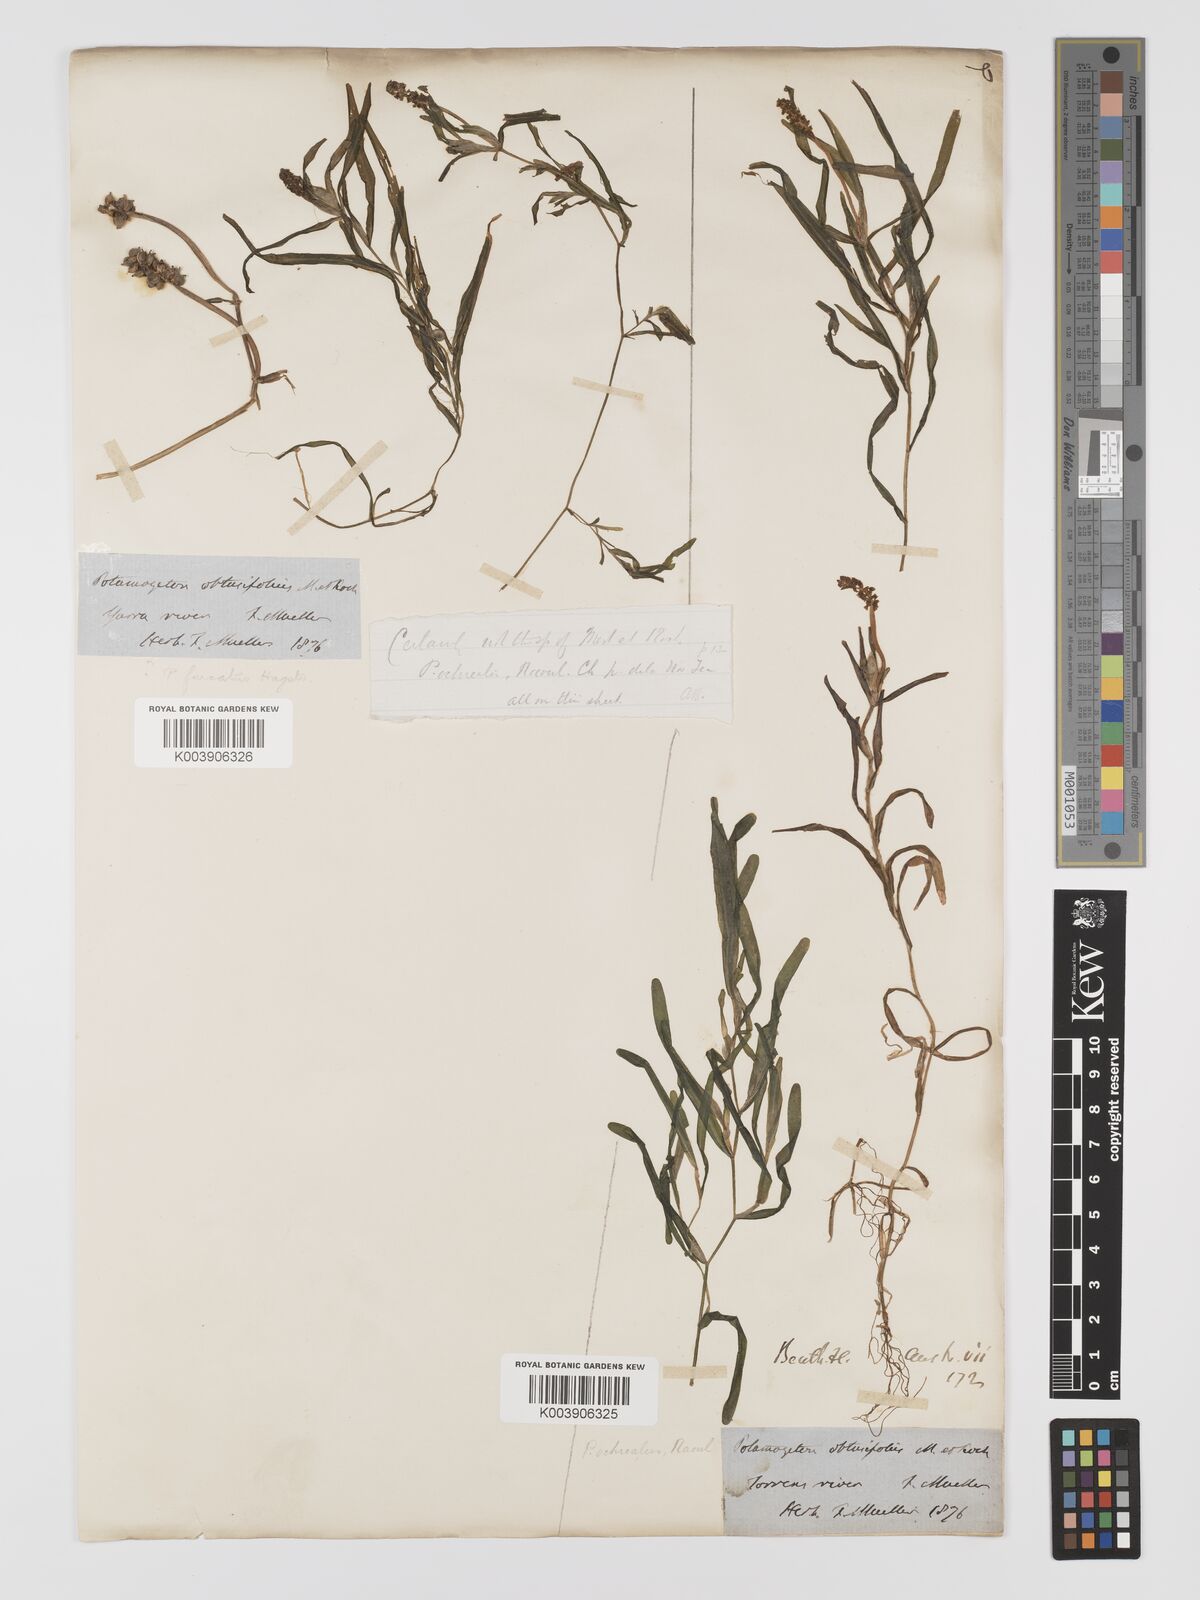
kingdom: Plantae
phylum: Tracheophyta
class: Liliopsida
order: Alismatales
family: Potamogetonaceae
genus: Potamogeton
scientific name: Potamogeton ochreatus
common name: Blunt pondweed
